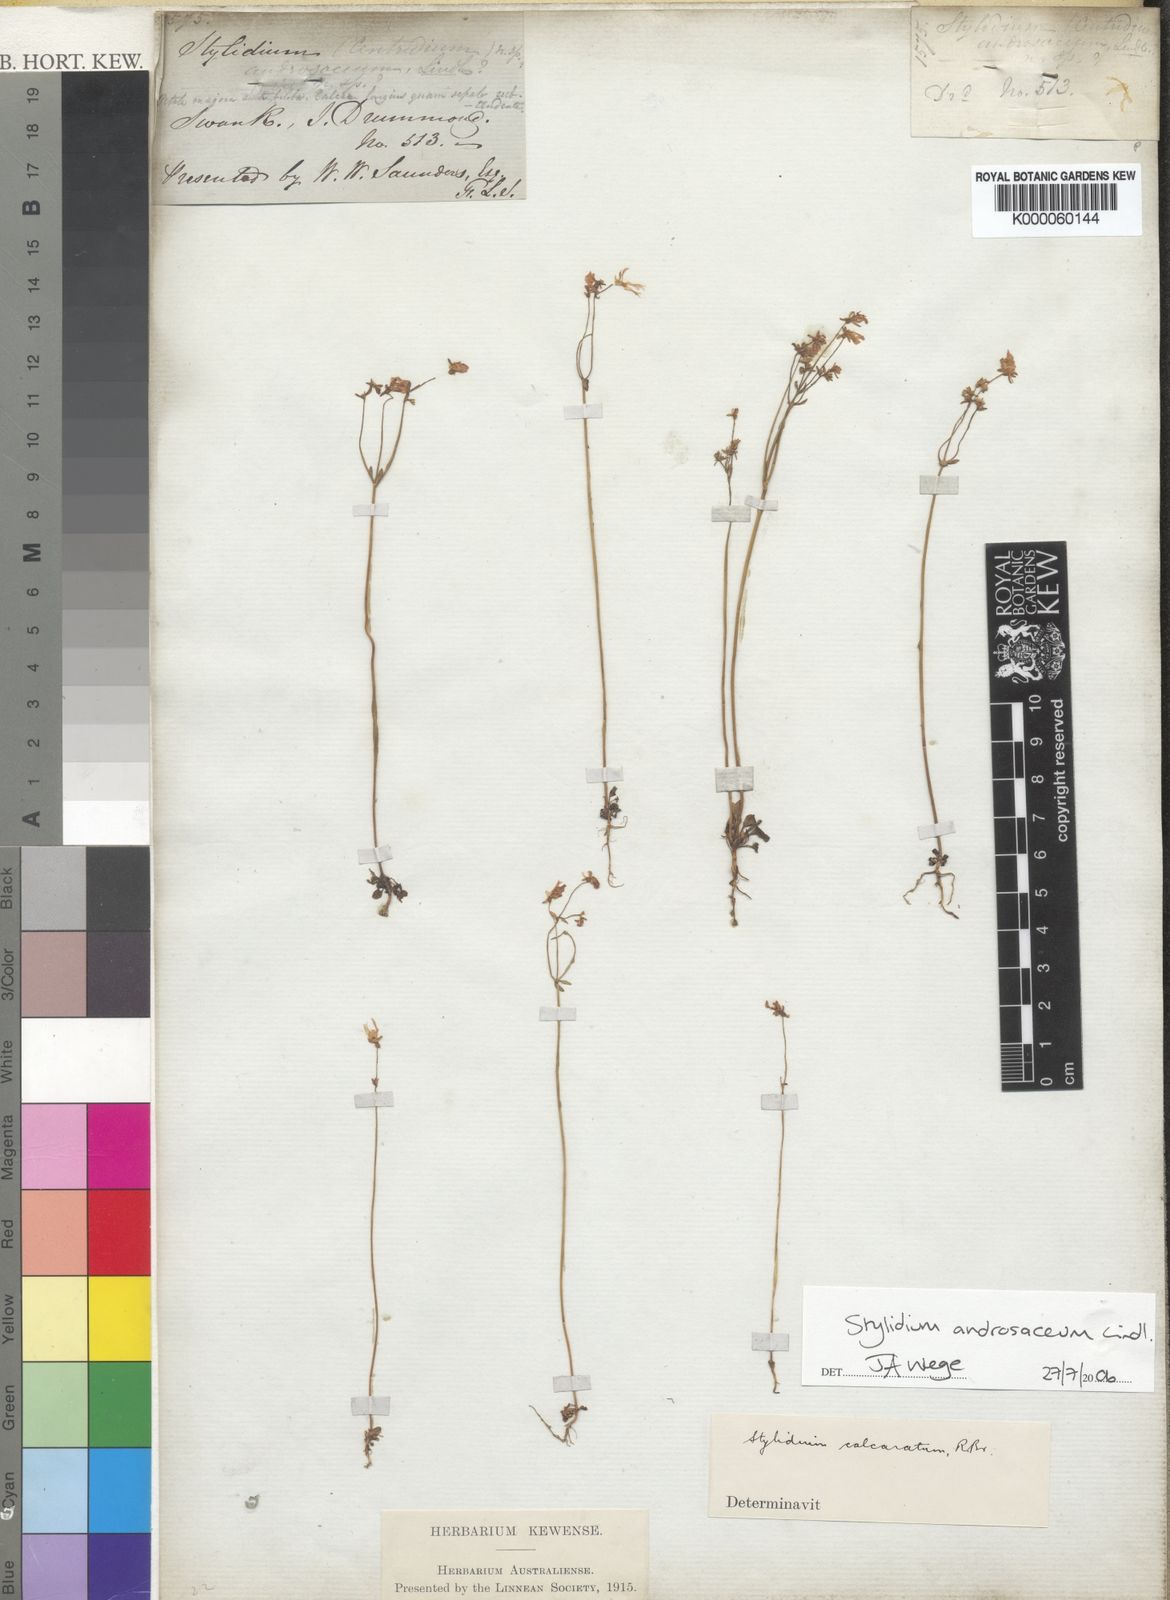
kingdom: Plantae
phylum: Tracheophyta
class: Magnoliopsida
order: Asterales
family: Stylidiaceae
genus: Stylidium
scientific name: Stylidium androsaceum
